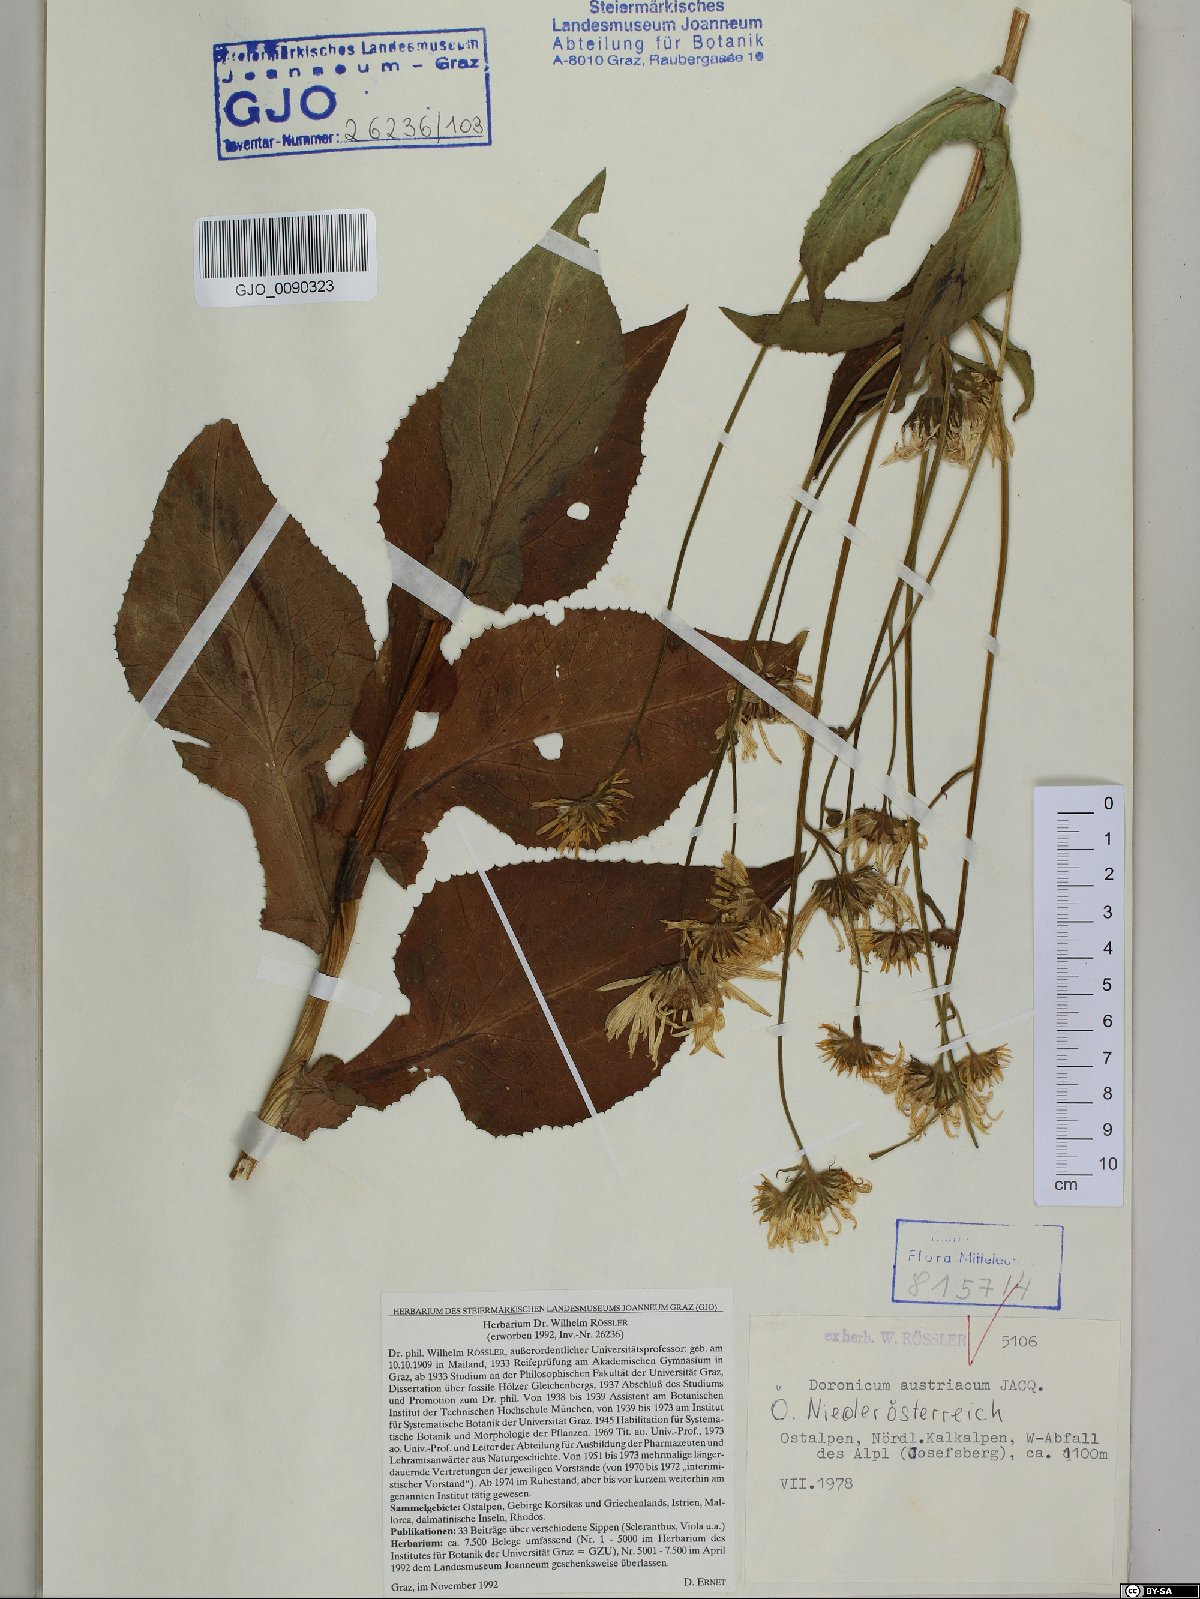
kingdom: Plantae
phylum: Tracheophyta
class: Magnoliopsida
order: Asterales
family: Asteraceae
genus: Doronicum
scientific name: Doronicum austriacum
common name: Austrian leopard's-bane
